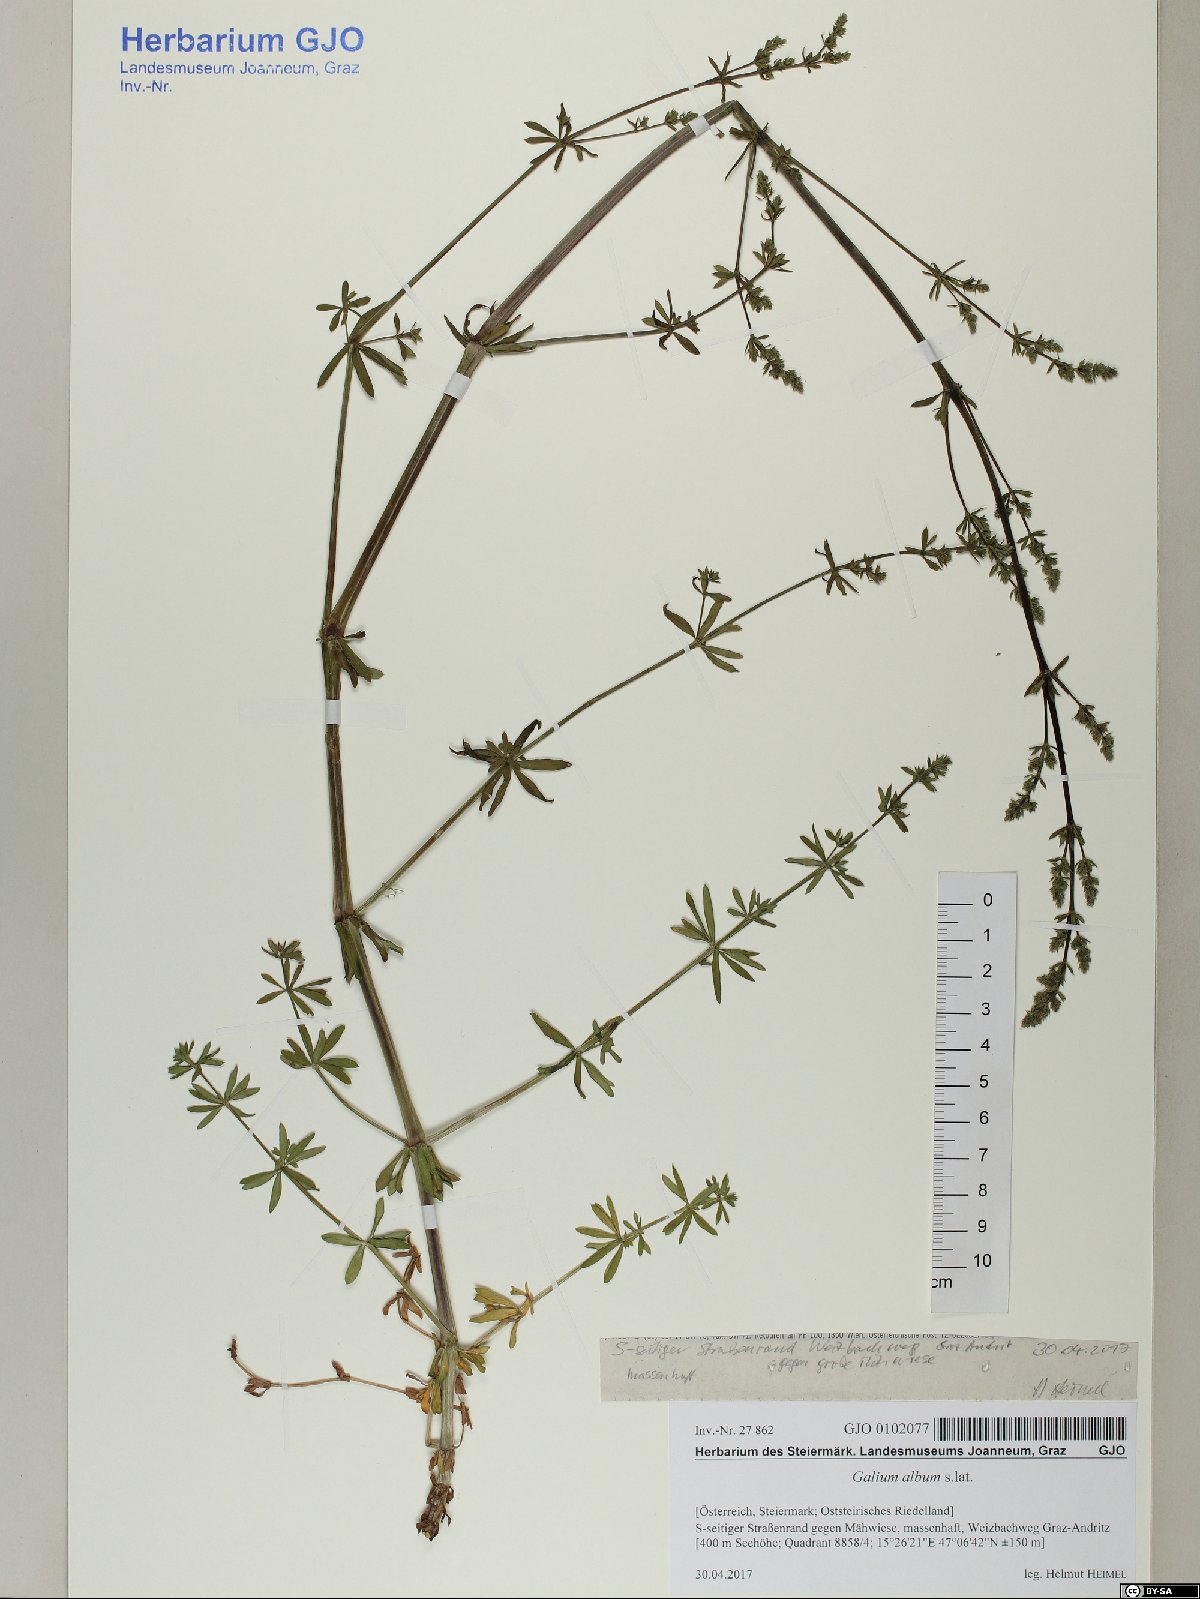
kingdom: Plantae
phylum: Tracheophyta
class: Magnoliopsida
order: Gentianales
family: Rubiaceae
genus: Galium
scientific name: Galium album
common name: White bedstraw
